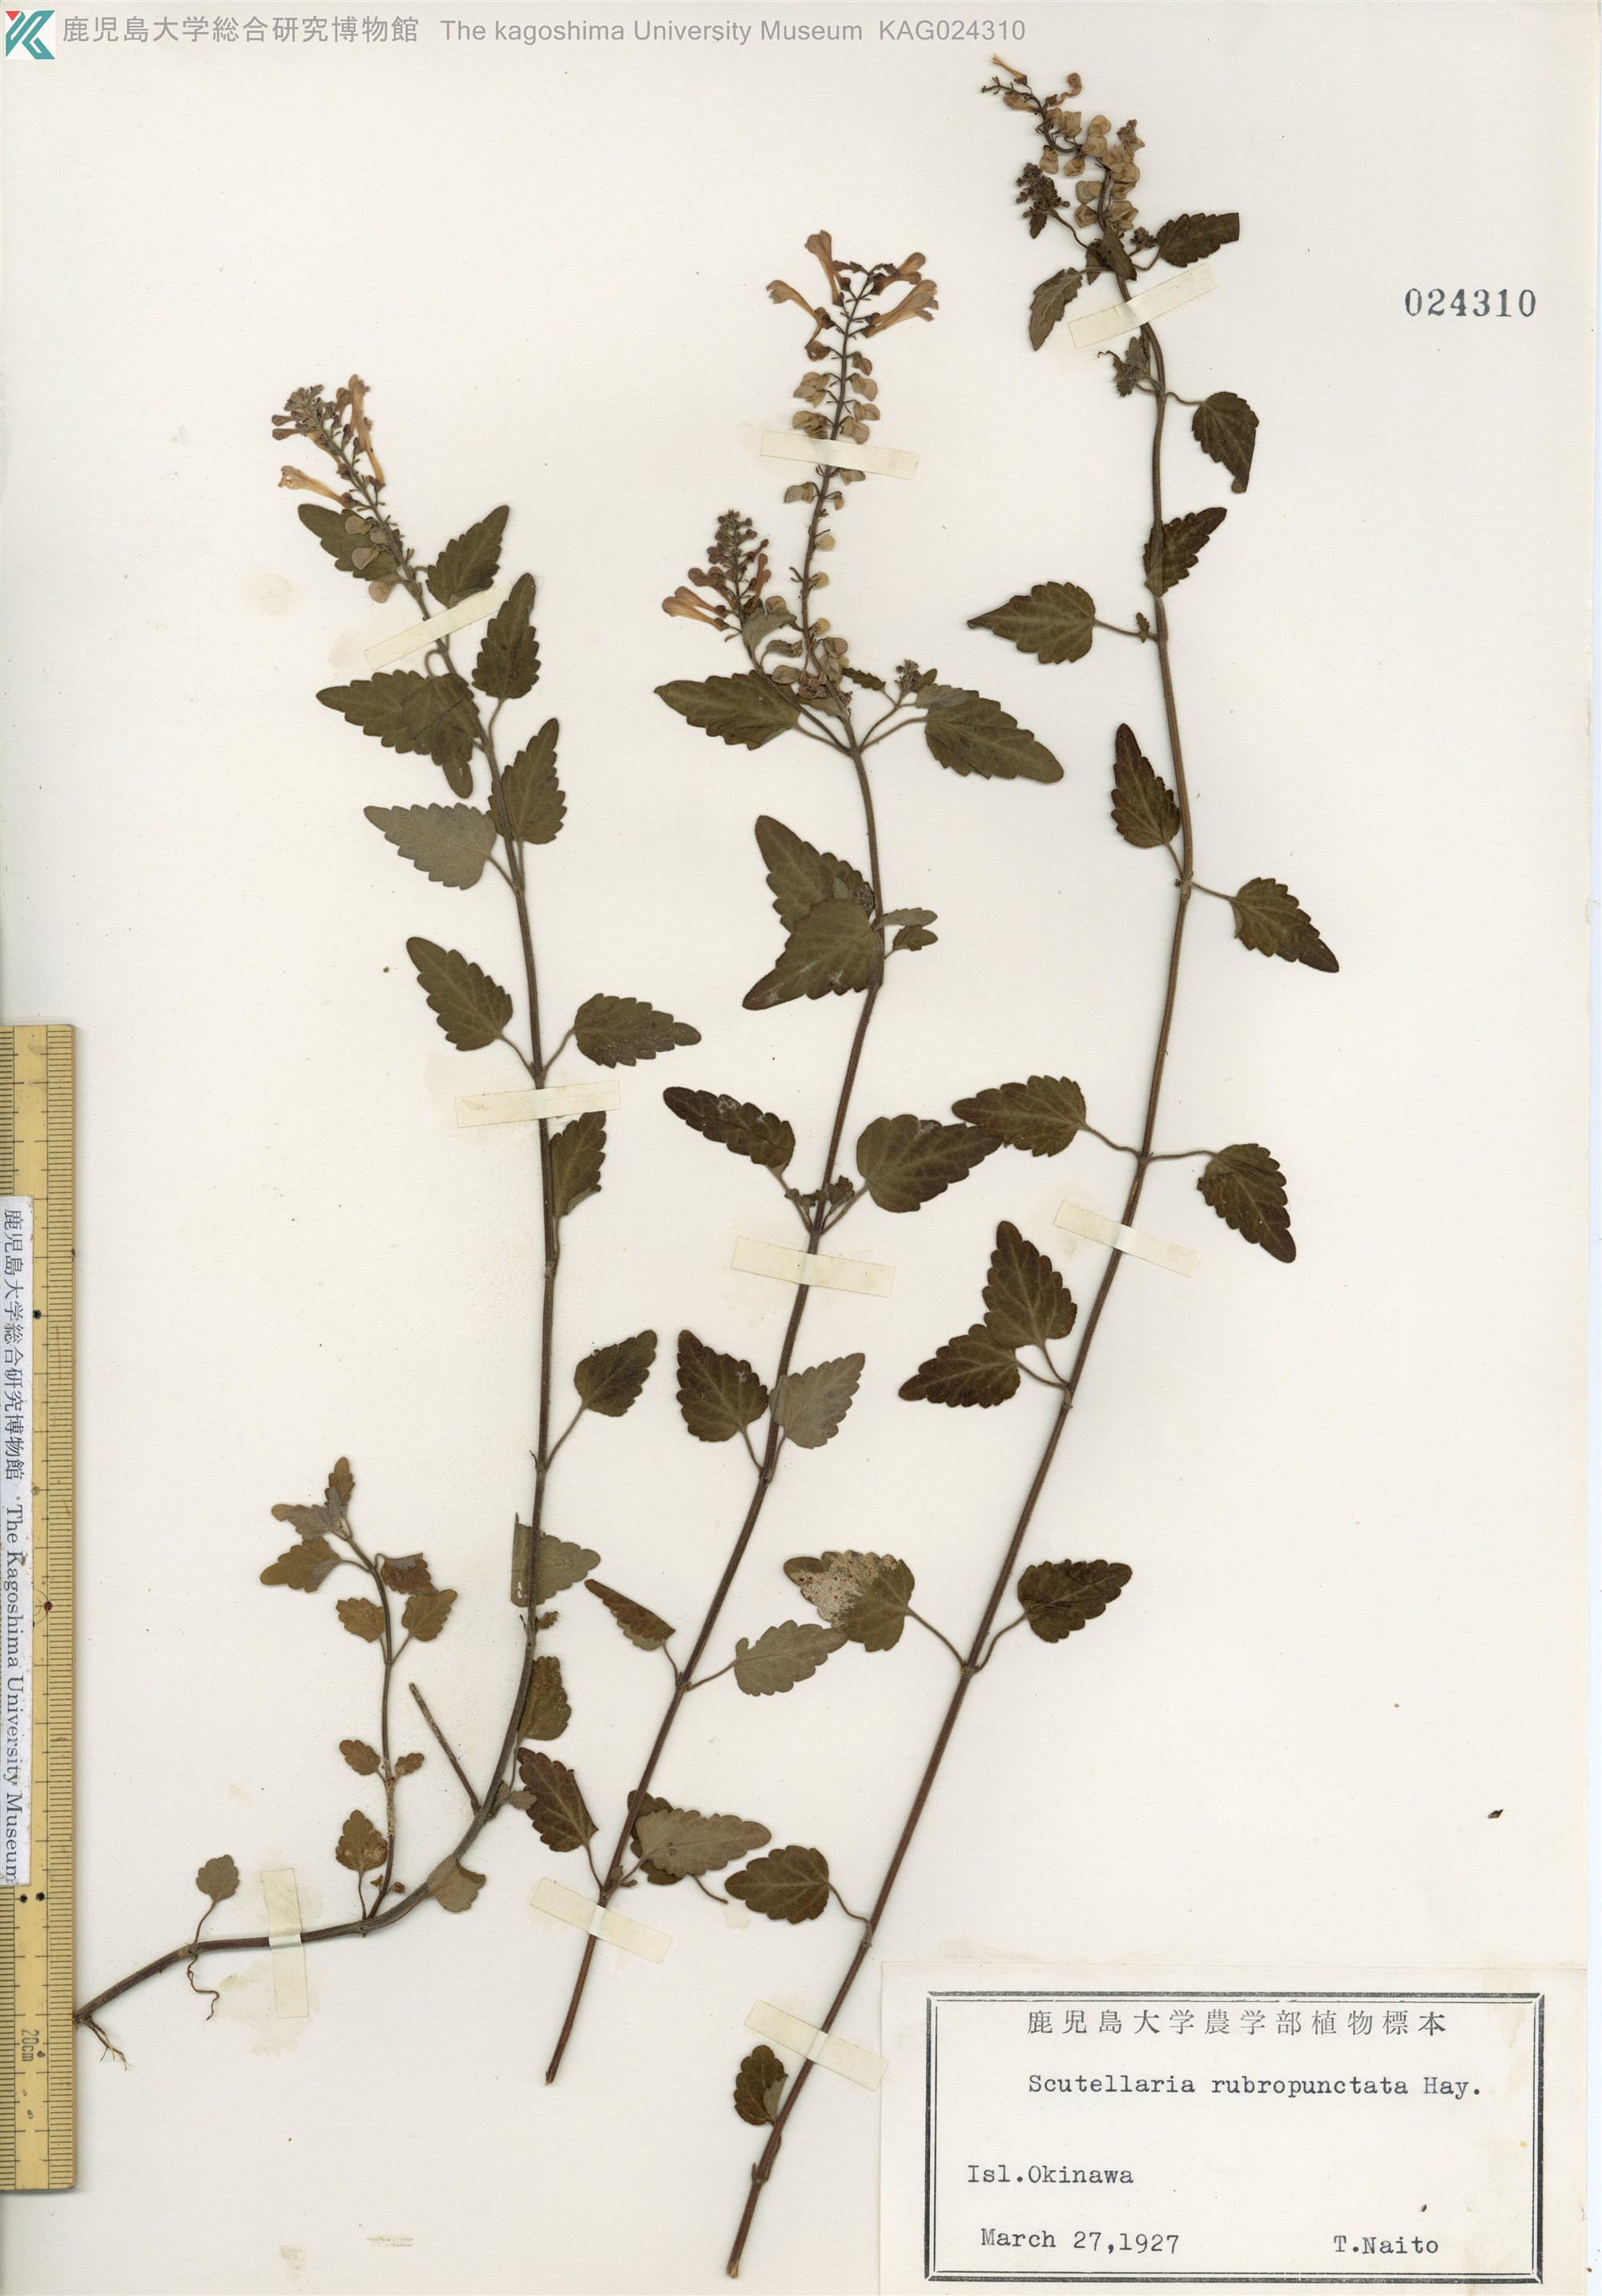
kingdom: Plantae
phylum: Tracheophyta
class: Magnoliopsida
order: Lamiales
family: Lamiaceae
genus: Scutellaria
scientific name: Scutellaria rubropunctata
